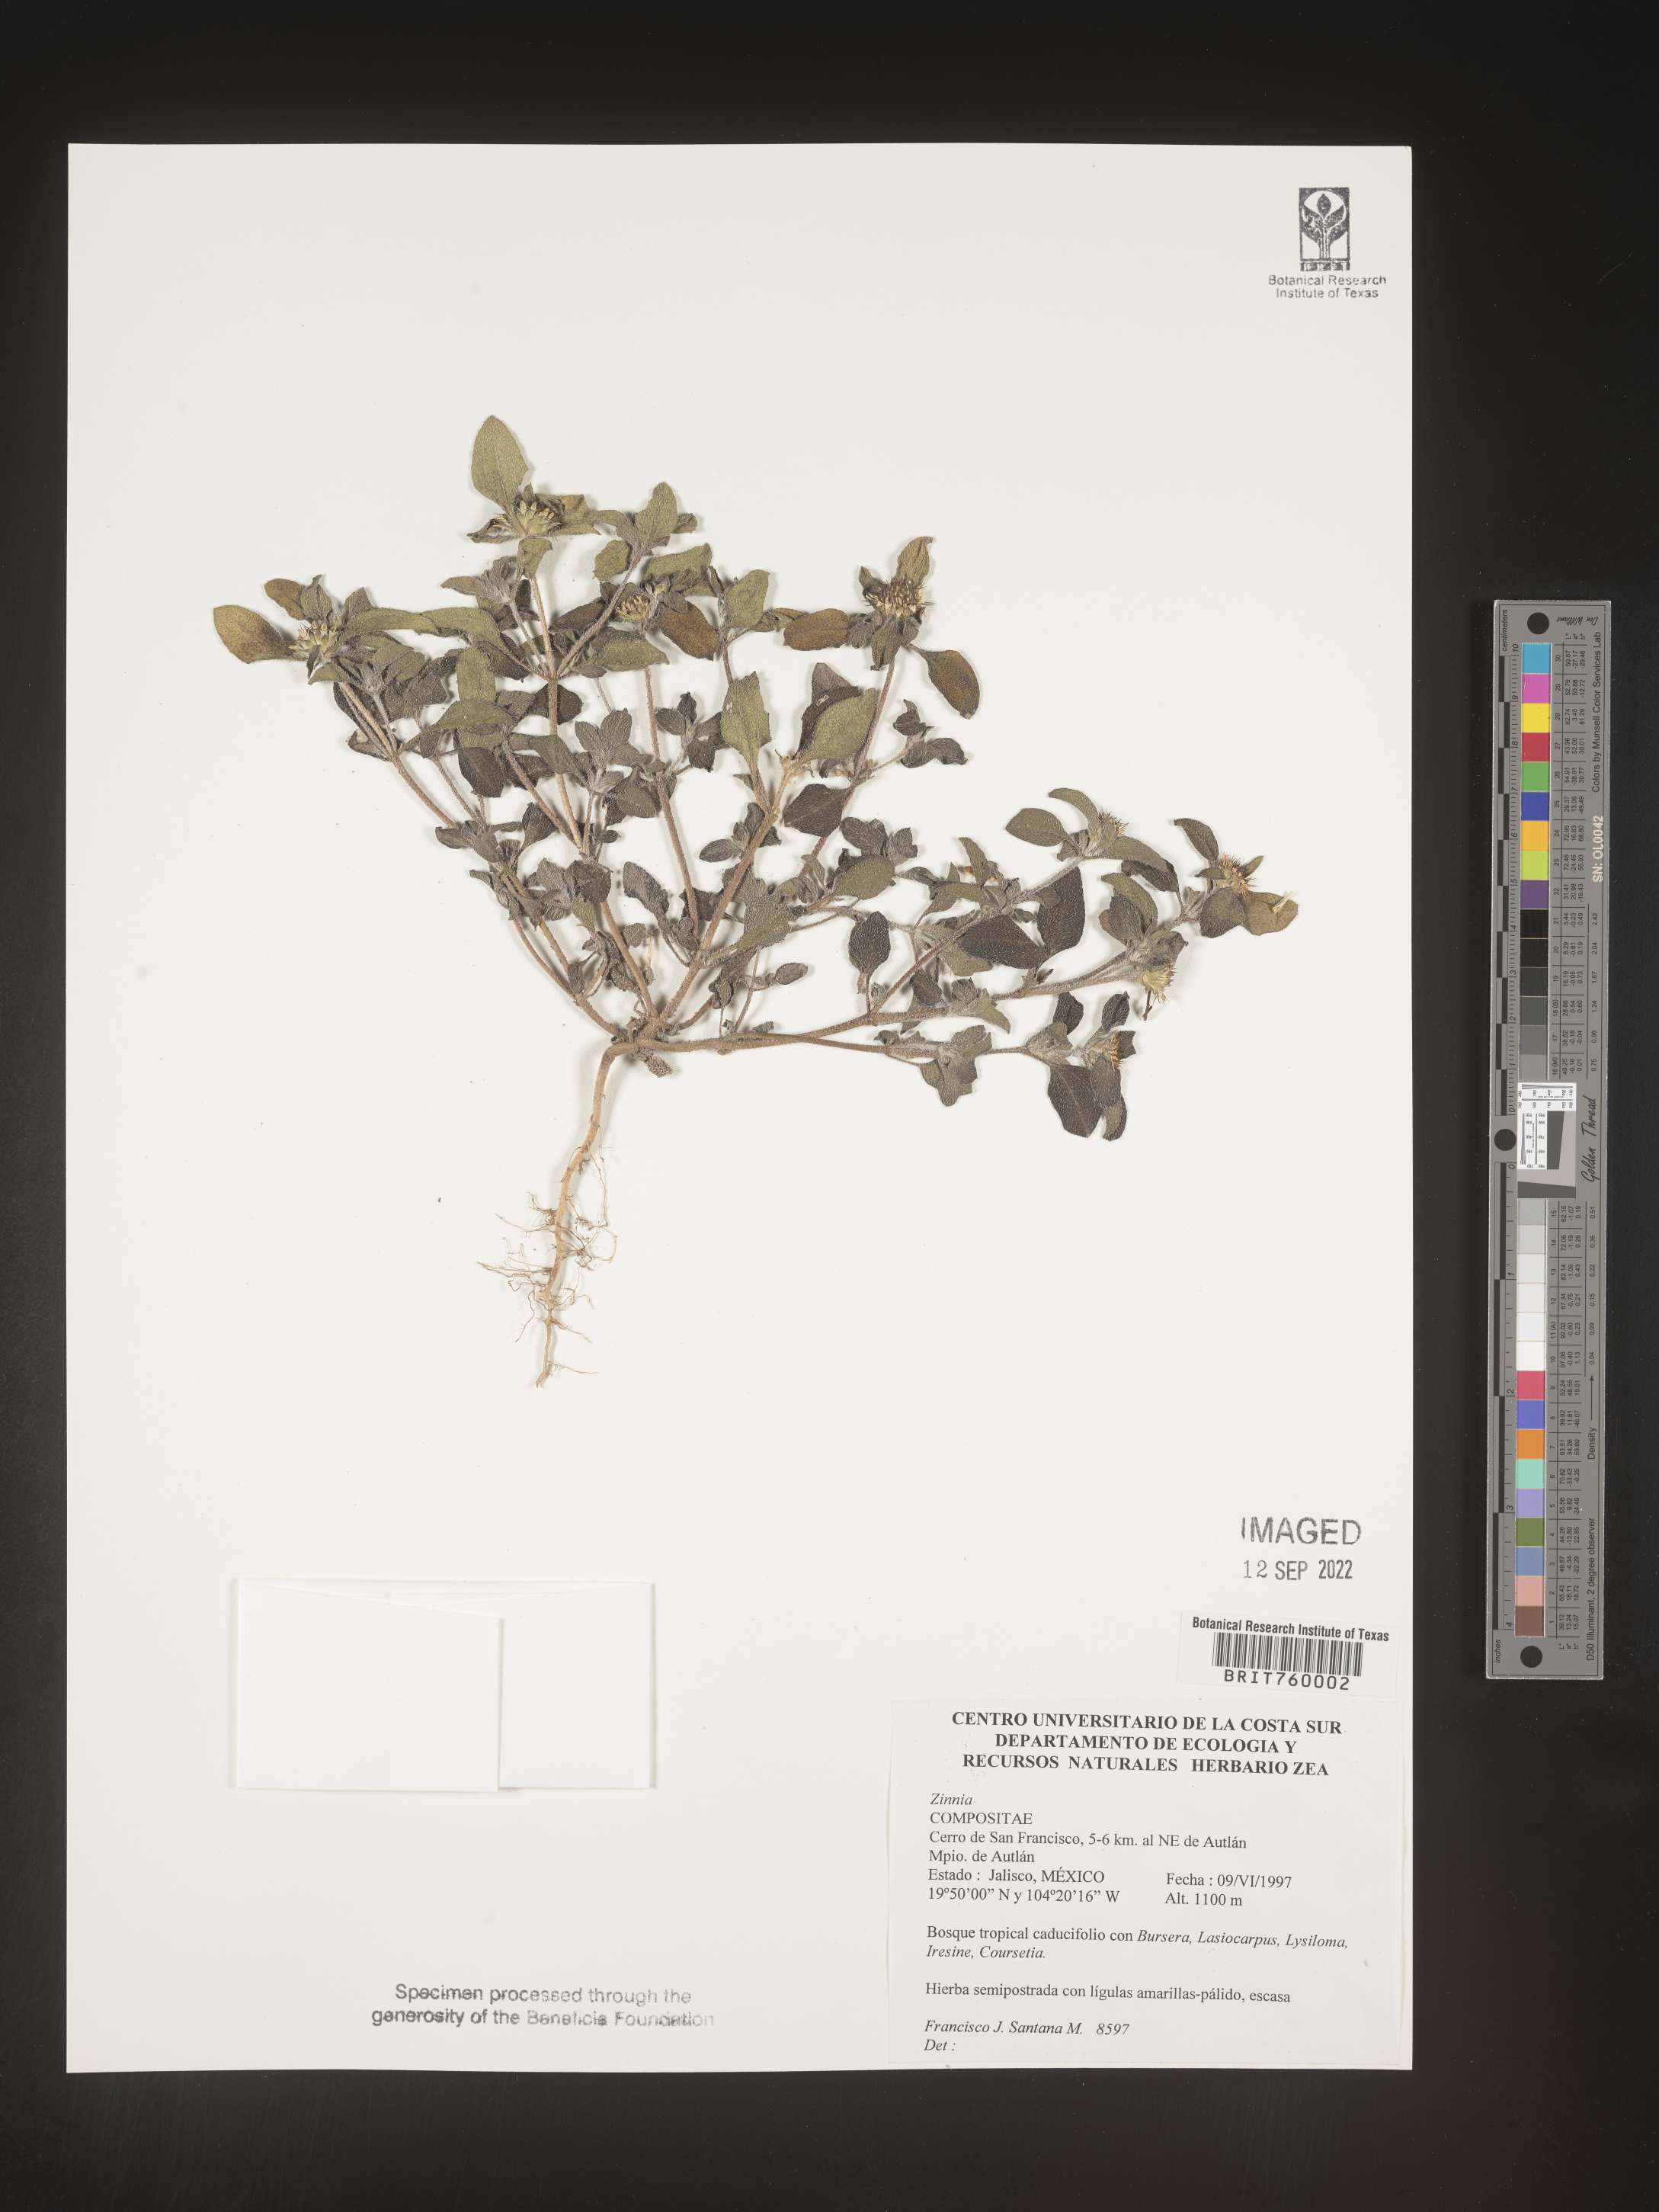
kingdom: Plantae
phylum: Tracheophyta
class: Magnoliopsida
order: Asterales
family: Asteraceae
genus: Zinnia
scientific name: Zinnia
